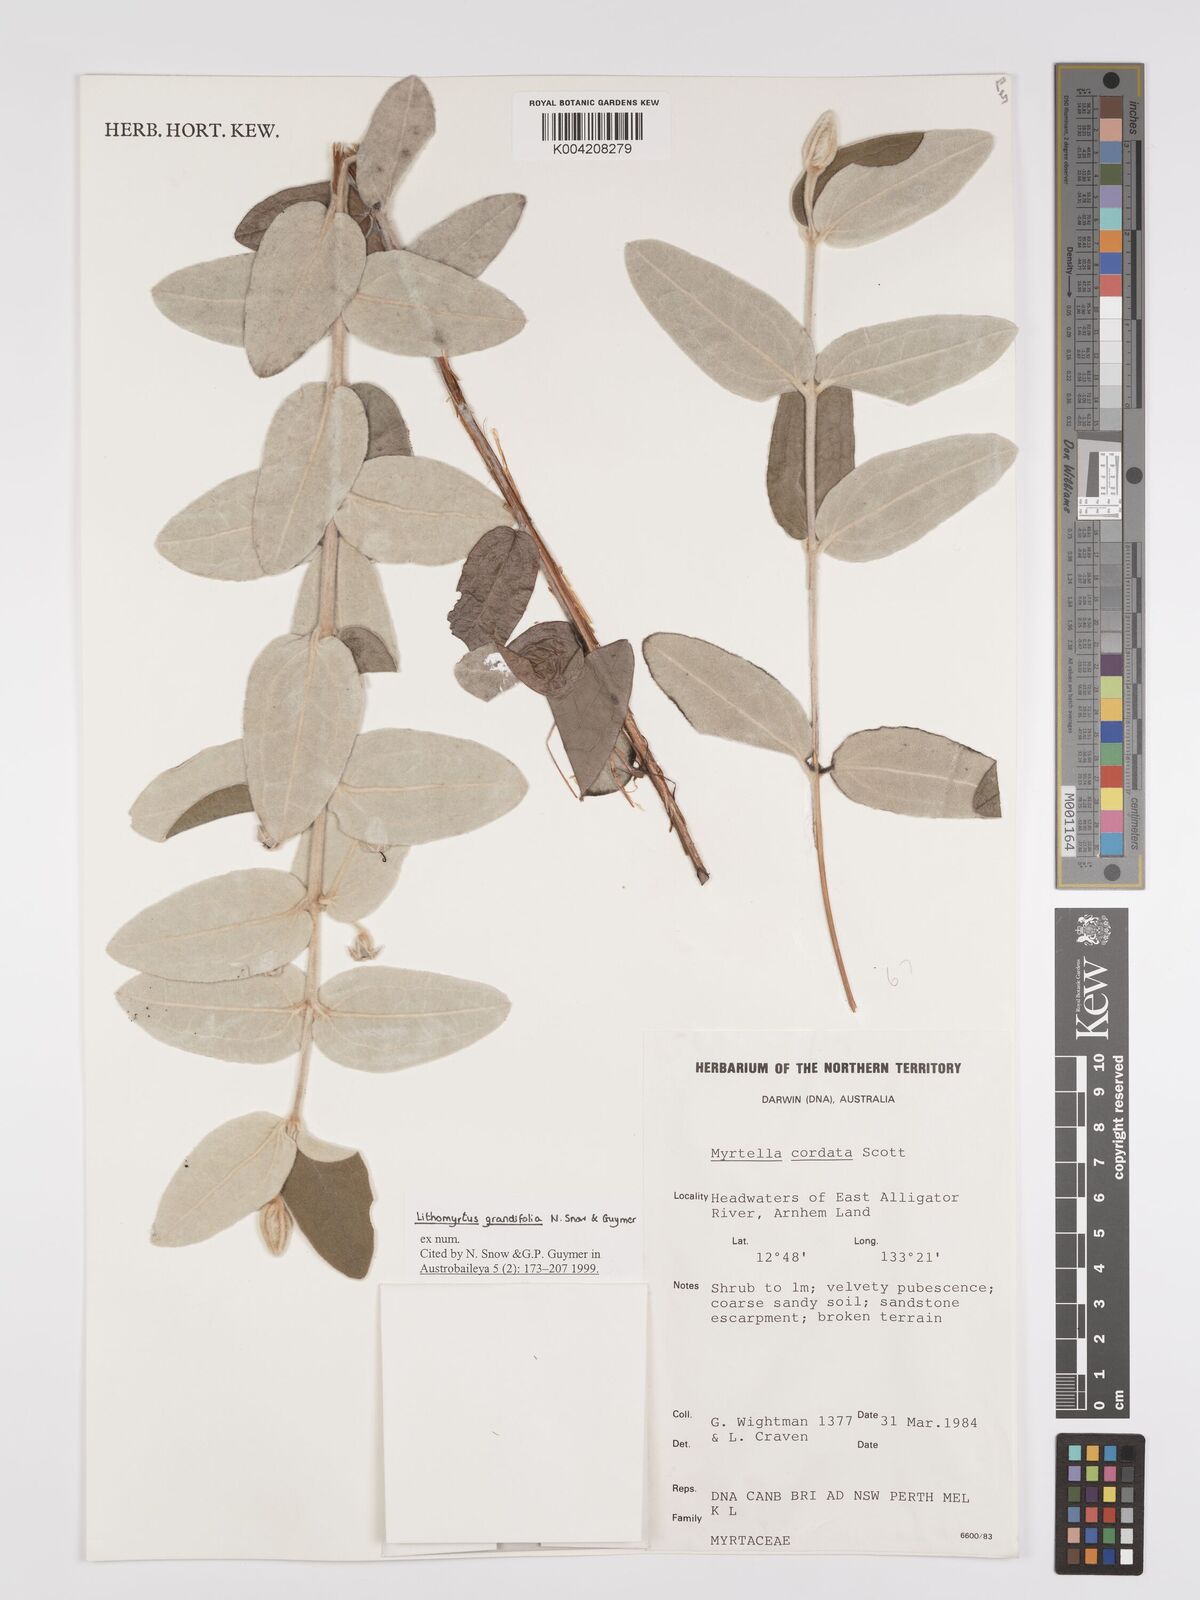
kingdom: Plantae
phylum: Tracheophyta
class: Magnoliopsida
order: Myrtales
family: Myrtaceae
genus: Lithomyrtus
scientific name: Lithomyrtus grandifolia
